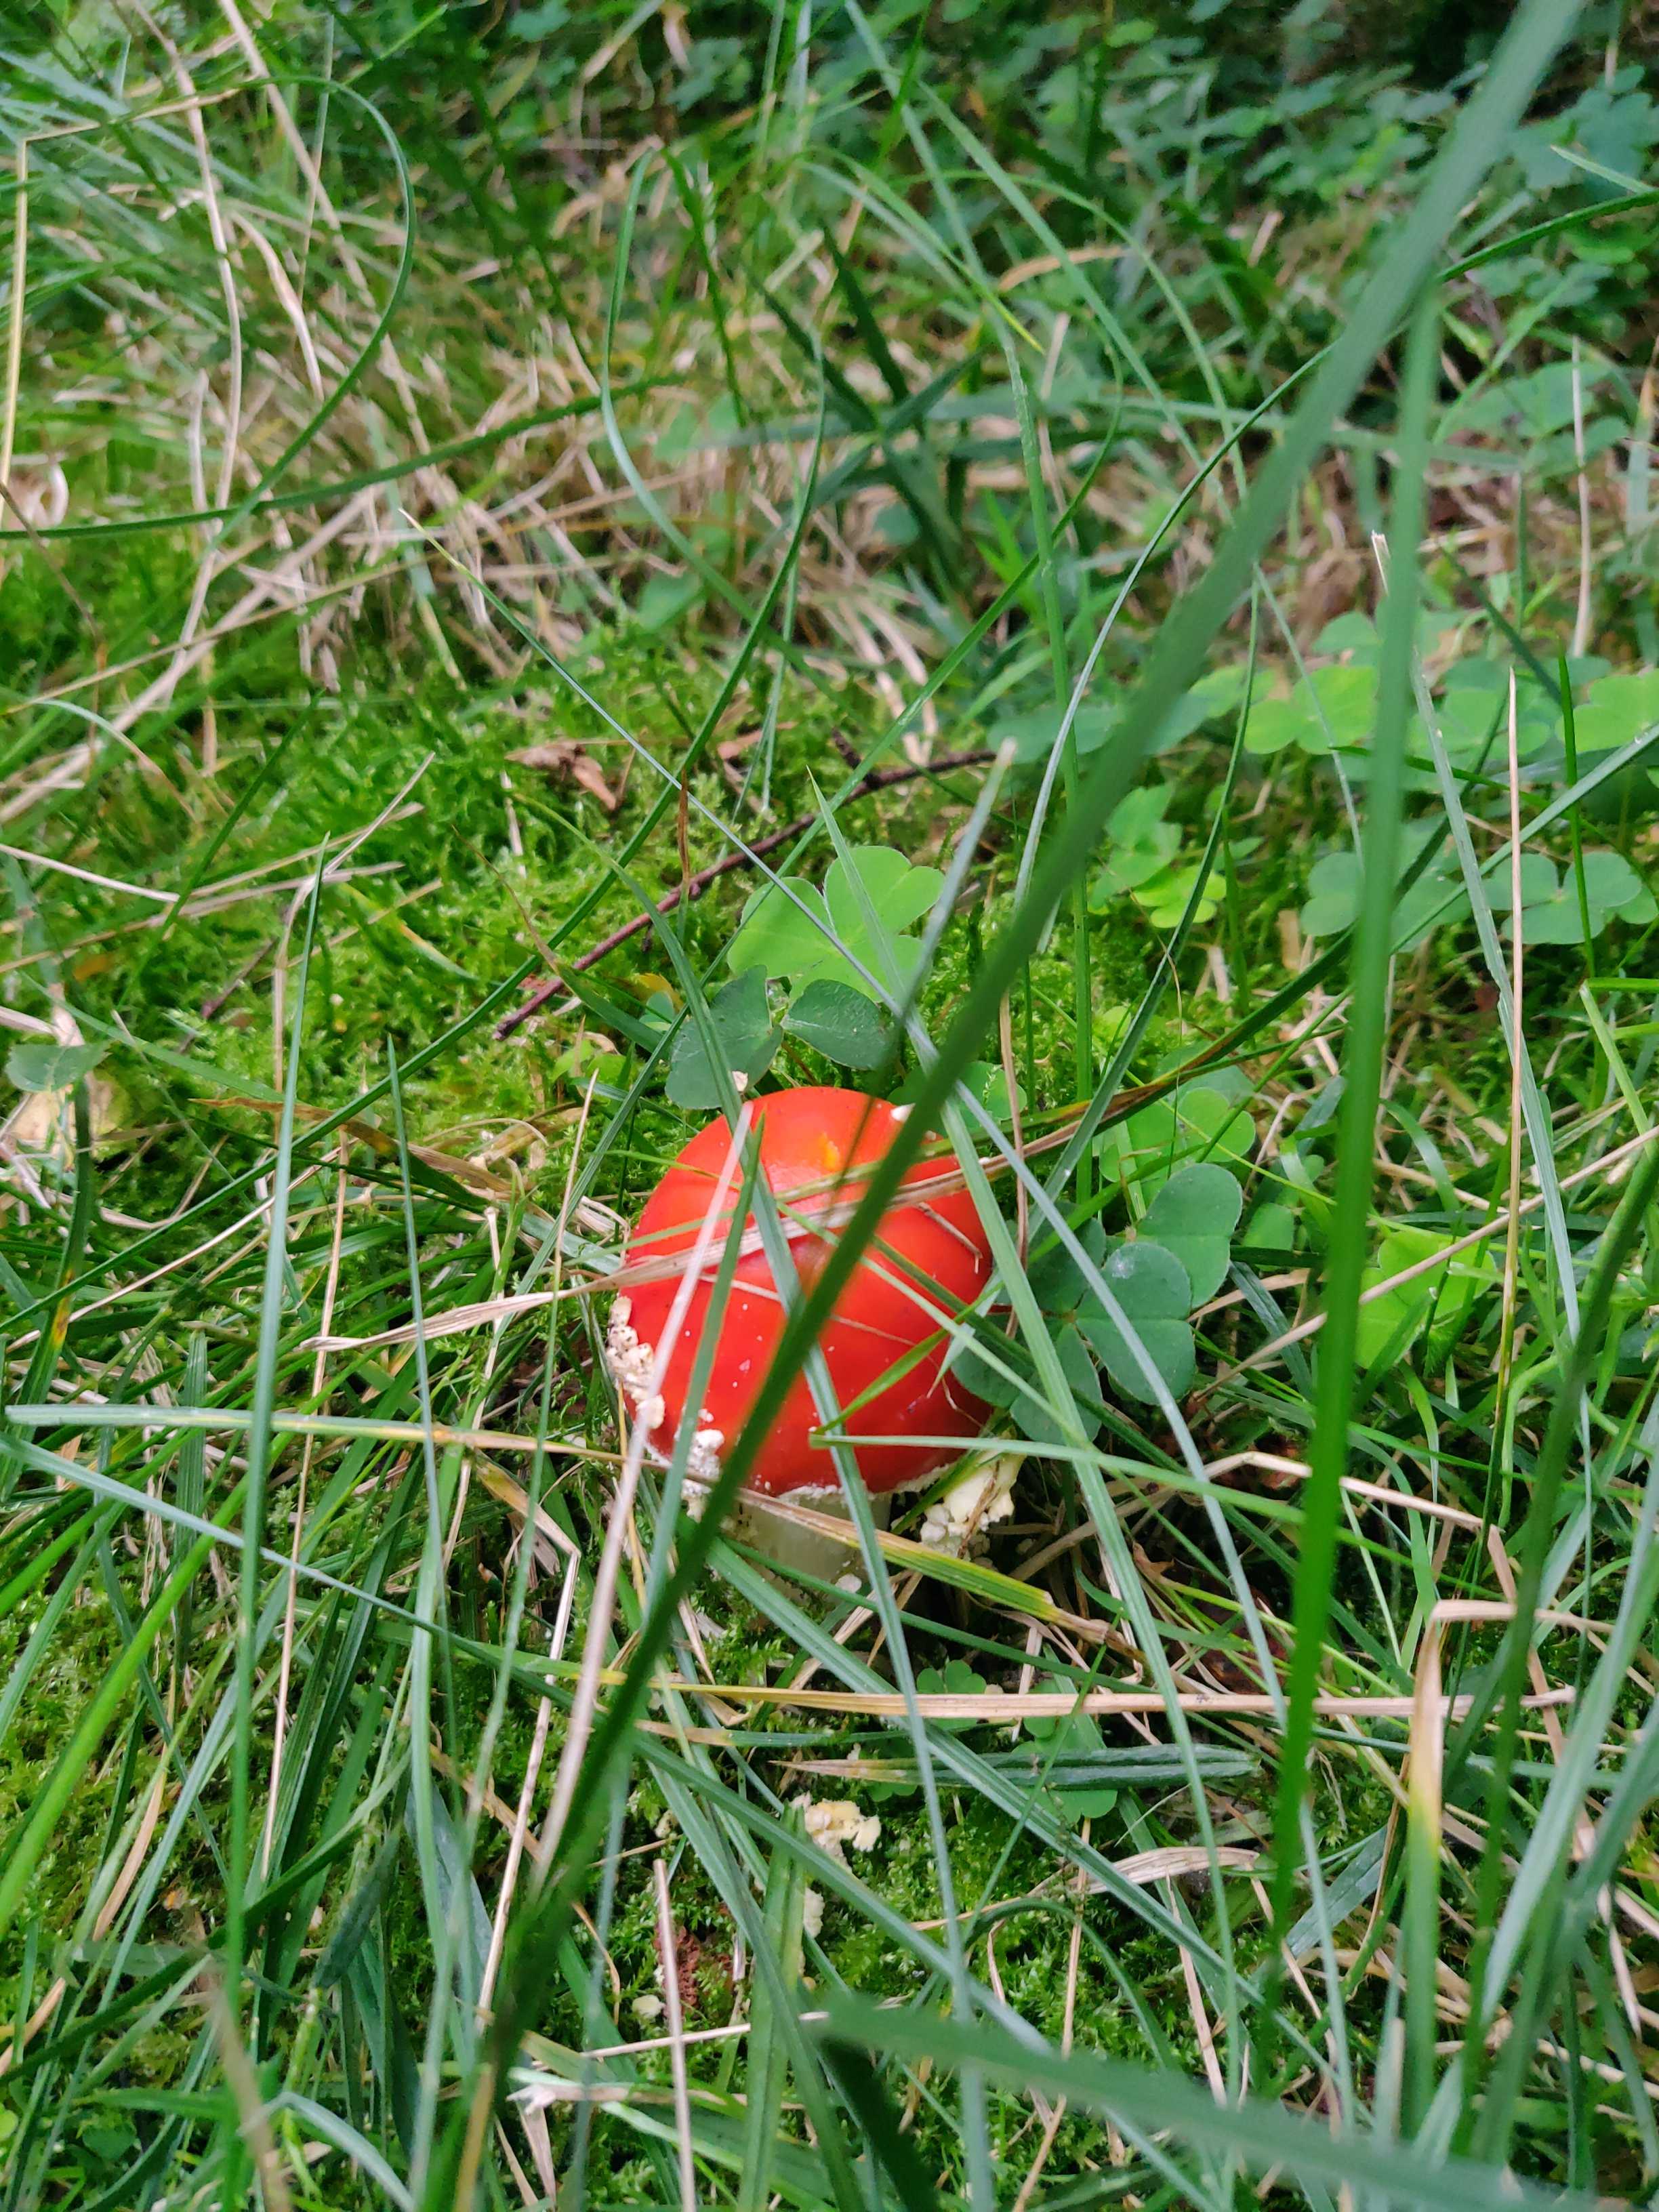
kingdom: Fungi
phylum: Basidiomycota
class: Agaricomycetes
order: Agaricales
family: Amanitaceae
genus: Amanita
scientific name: Amanita muscaria
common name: rød fluesvamp
